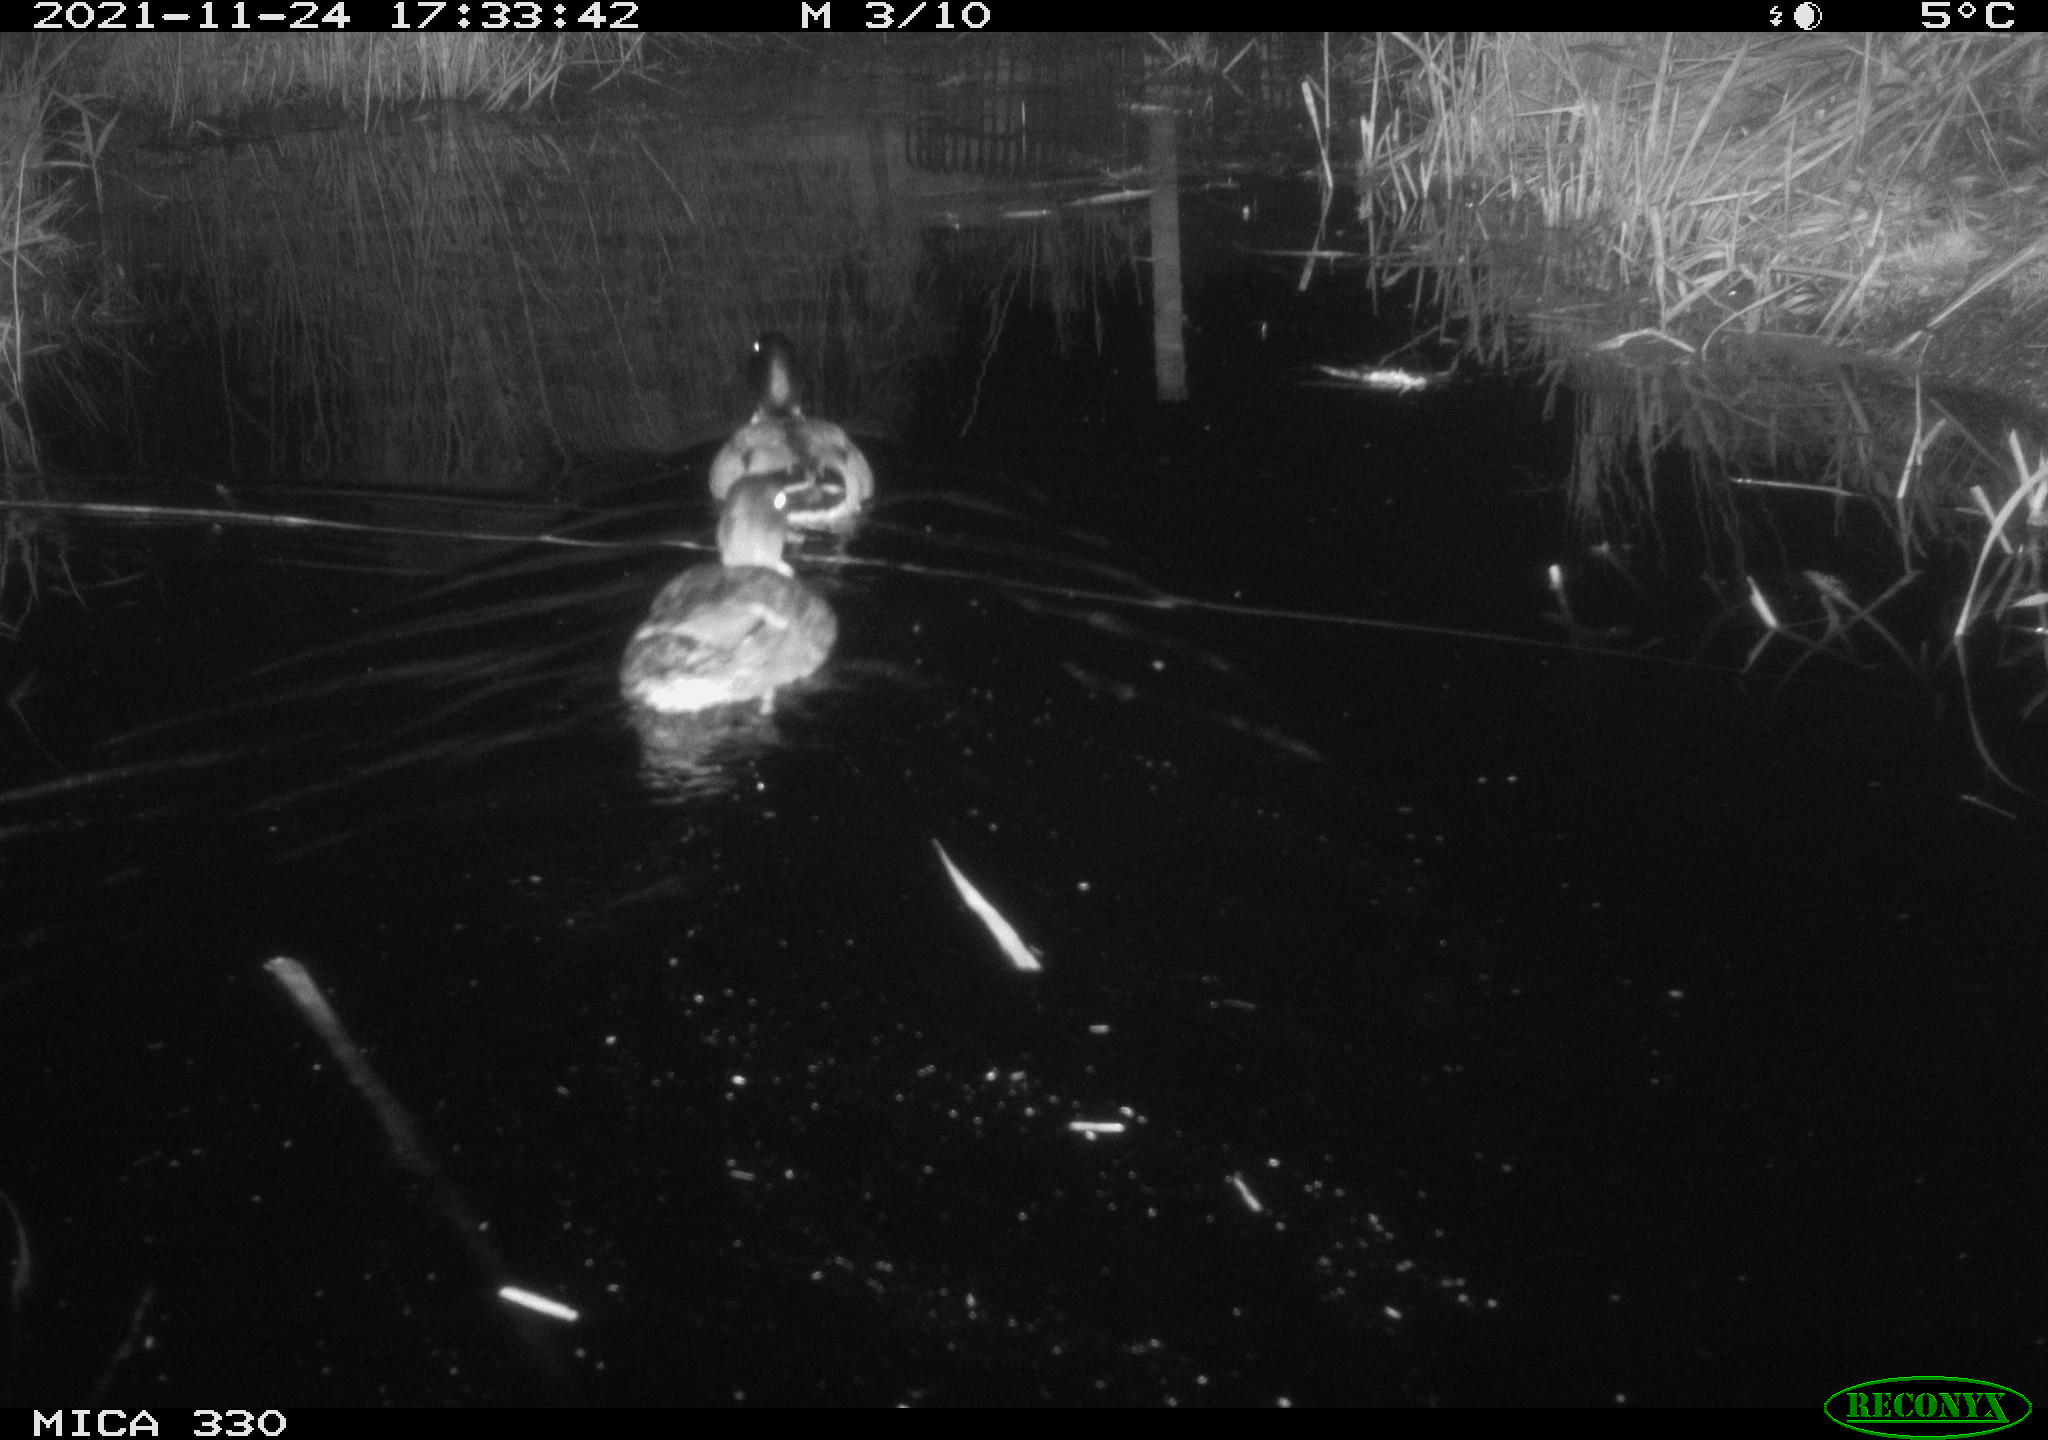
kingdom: Animalia
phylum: Chordata
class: Aves
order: Anseriformes
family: Anatidae
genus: Anas
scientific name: Anas platyrhynchos
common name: Mallard
